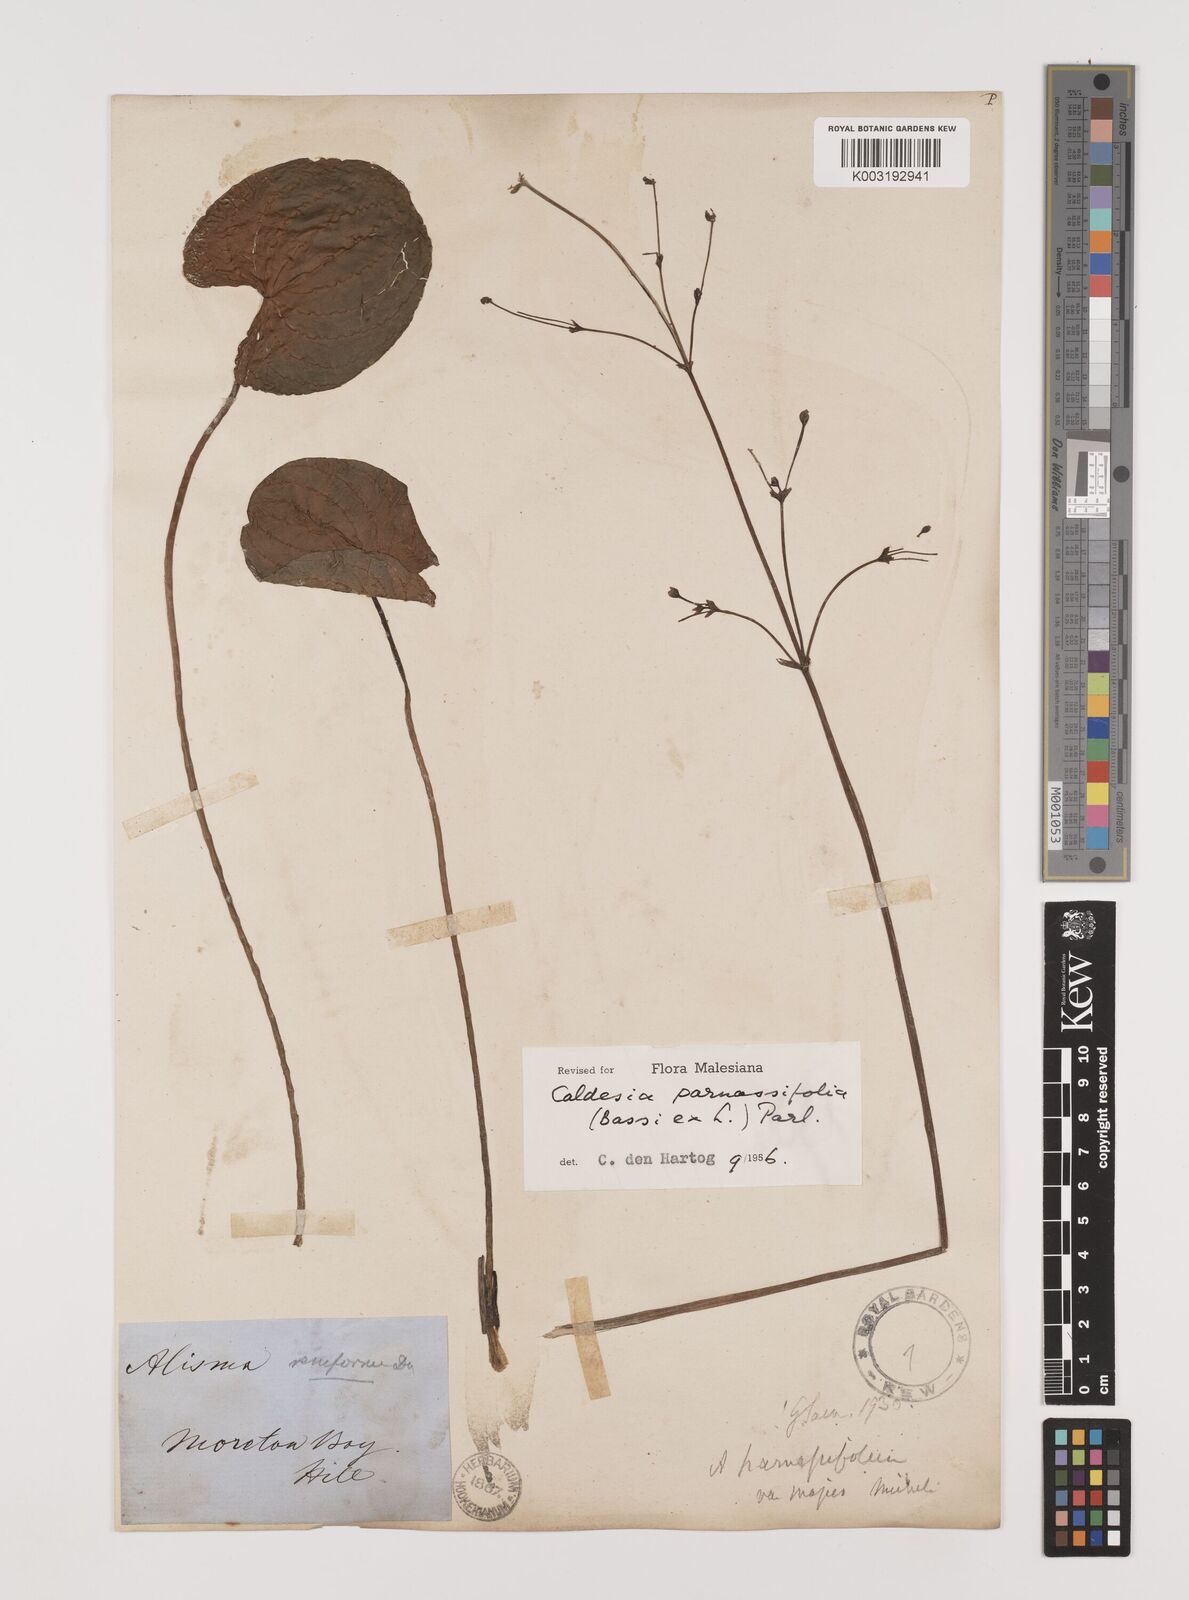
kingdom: Plantae
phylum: Tracheophyta
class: Liliopsida
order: Alismatales
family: Alismataceae
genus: Caldesia
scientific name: Caldesia parnassifolia
